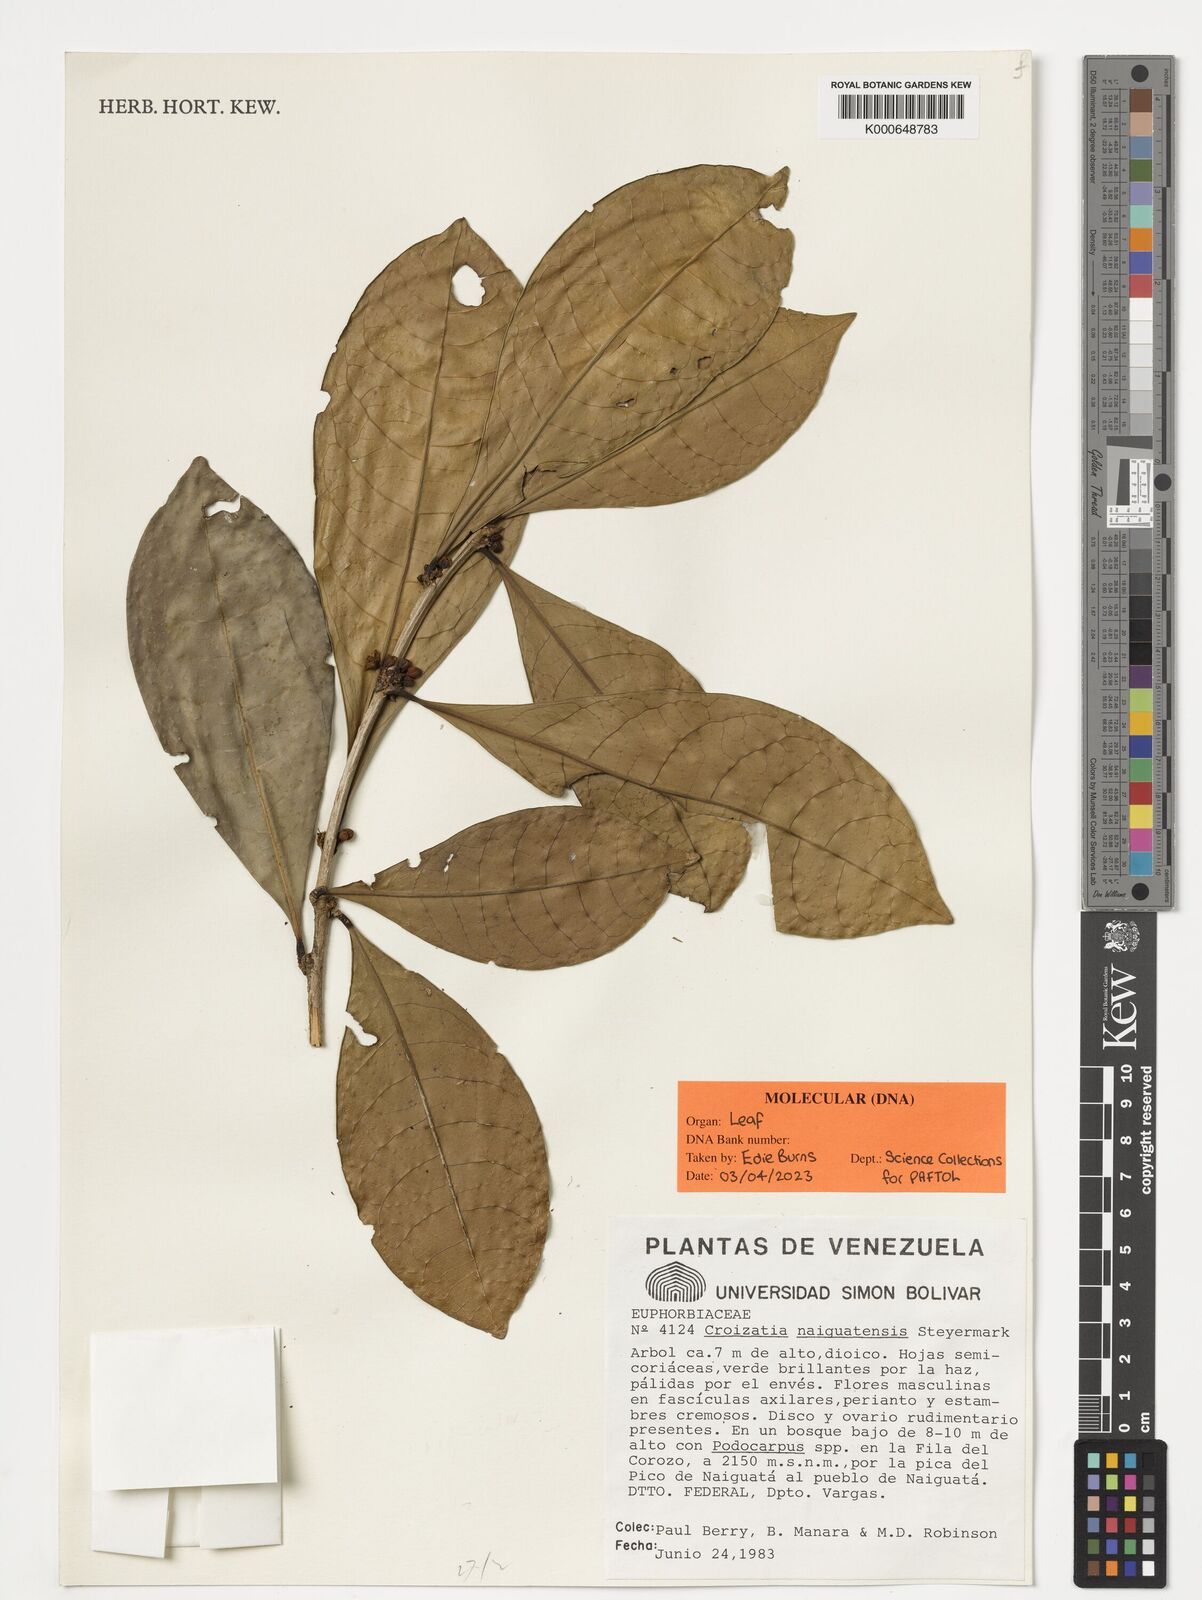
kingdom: Plantae
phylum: Tracheophyta
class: Magnoliopsida
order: Malpighiales
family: Phyllanthaceae
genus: Croizatia
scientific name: Croizatia naiguatensis
